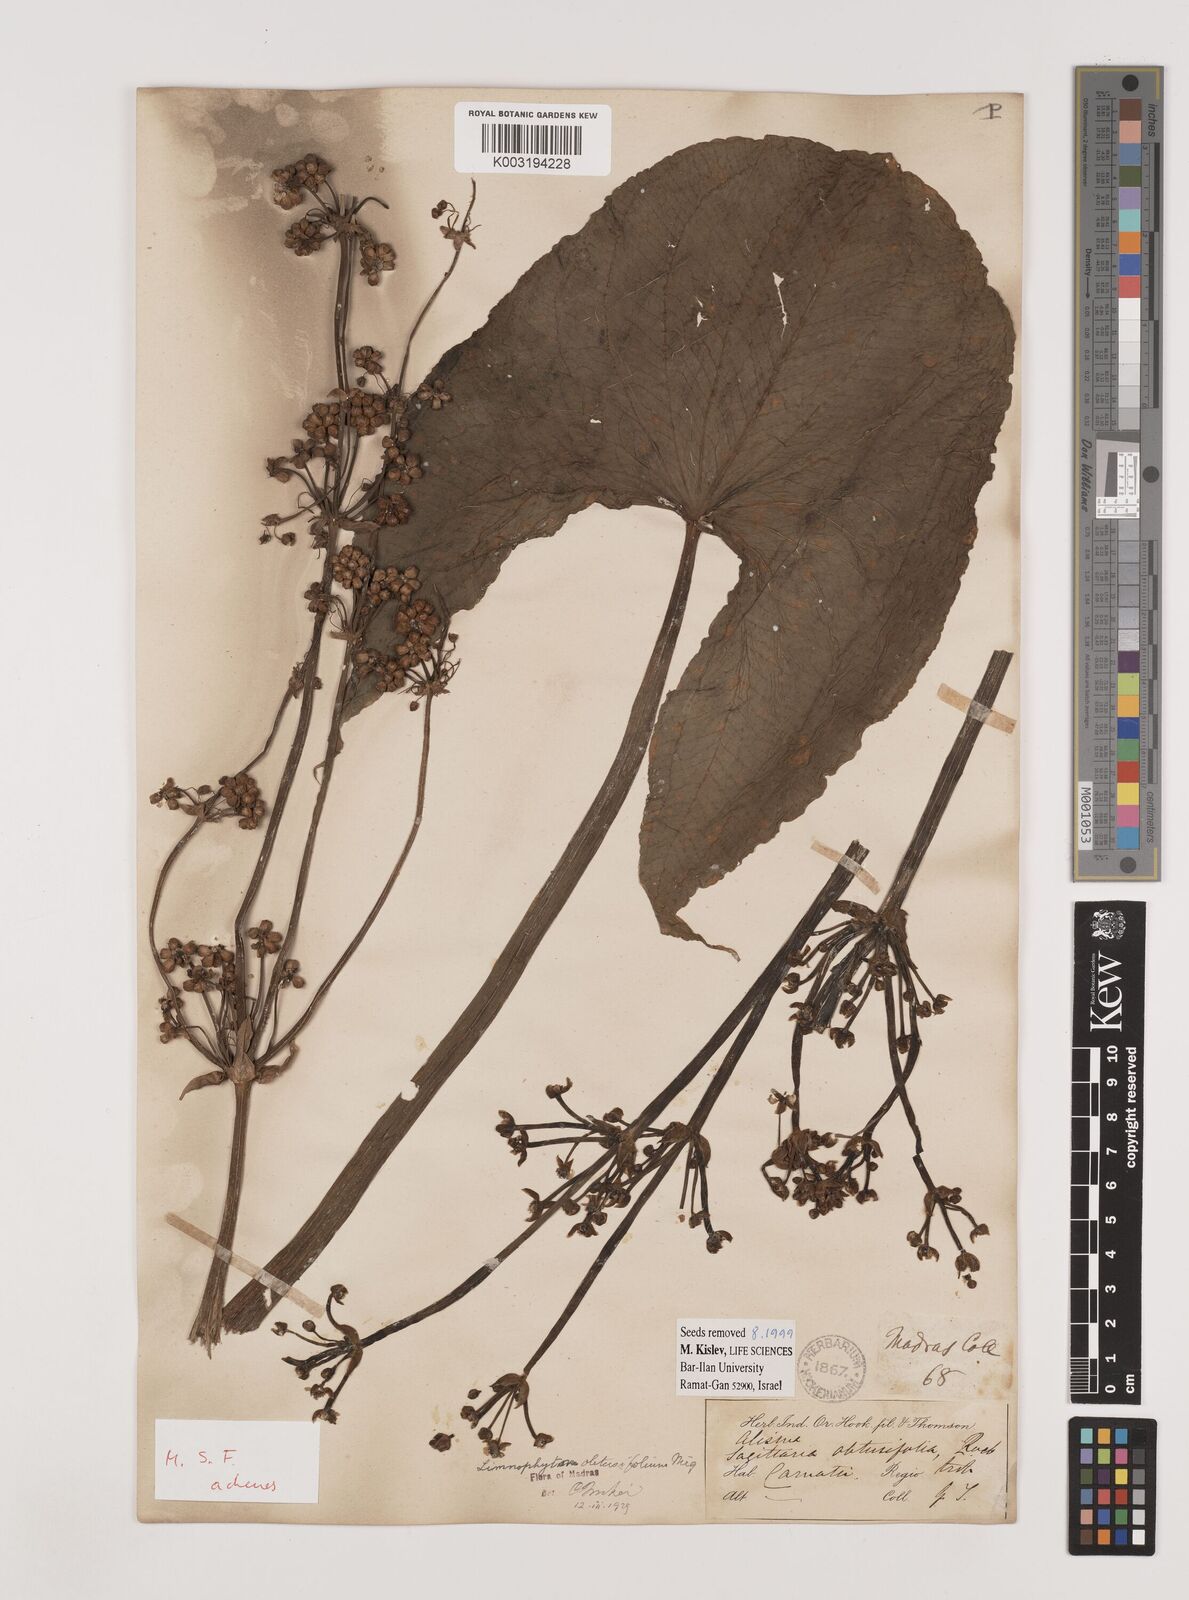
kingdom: Plantae
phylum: Tracheophyta
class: Liliopsida
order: Alismatales
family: Alismataceae
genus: Limnophyton
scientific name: Limnophyton obtusifolium
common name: Arrow head
